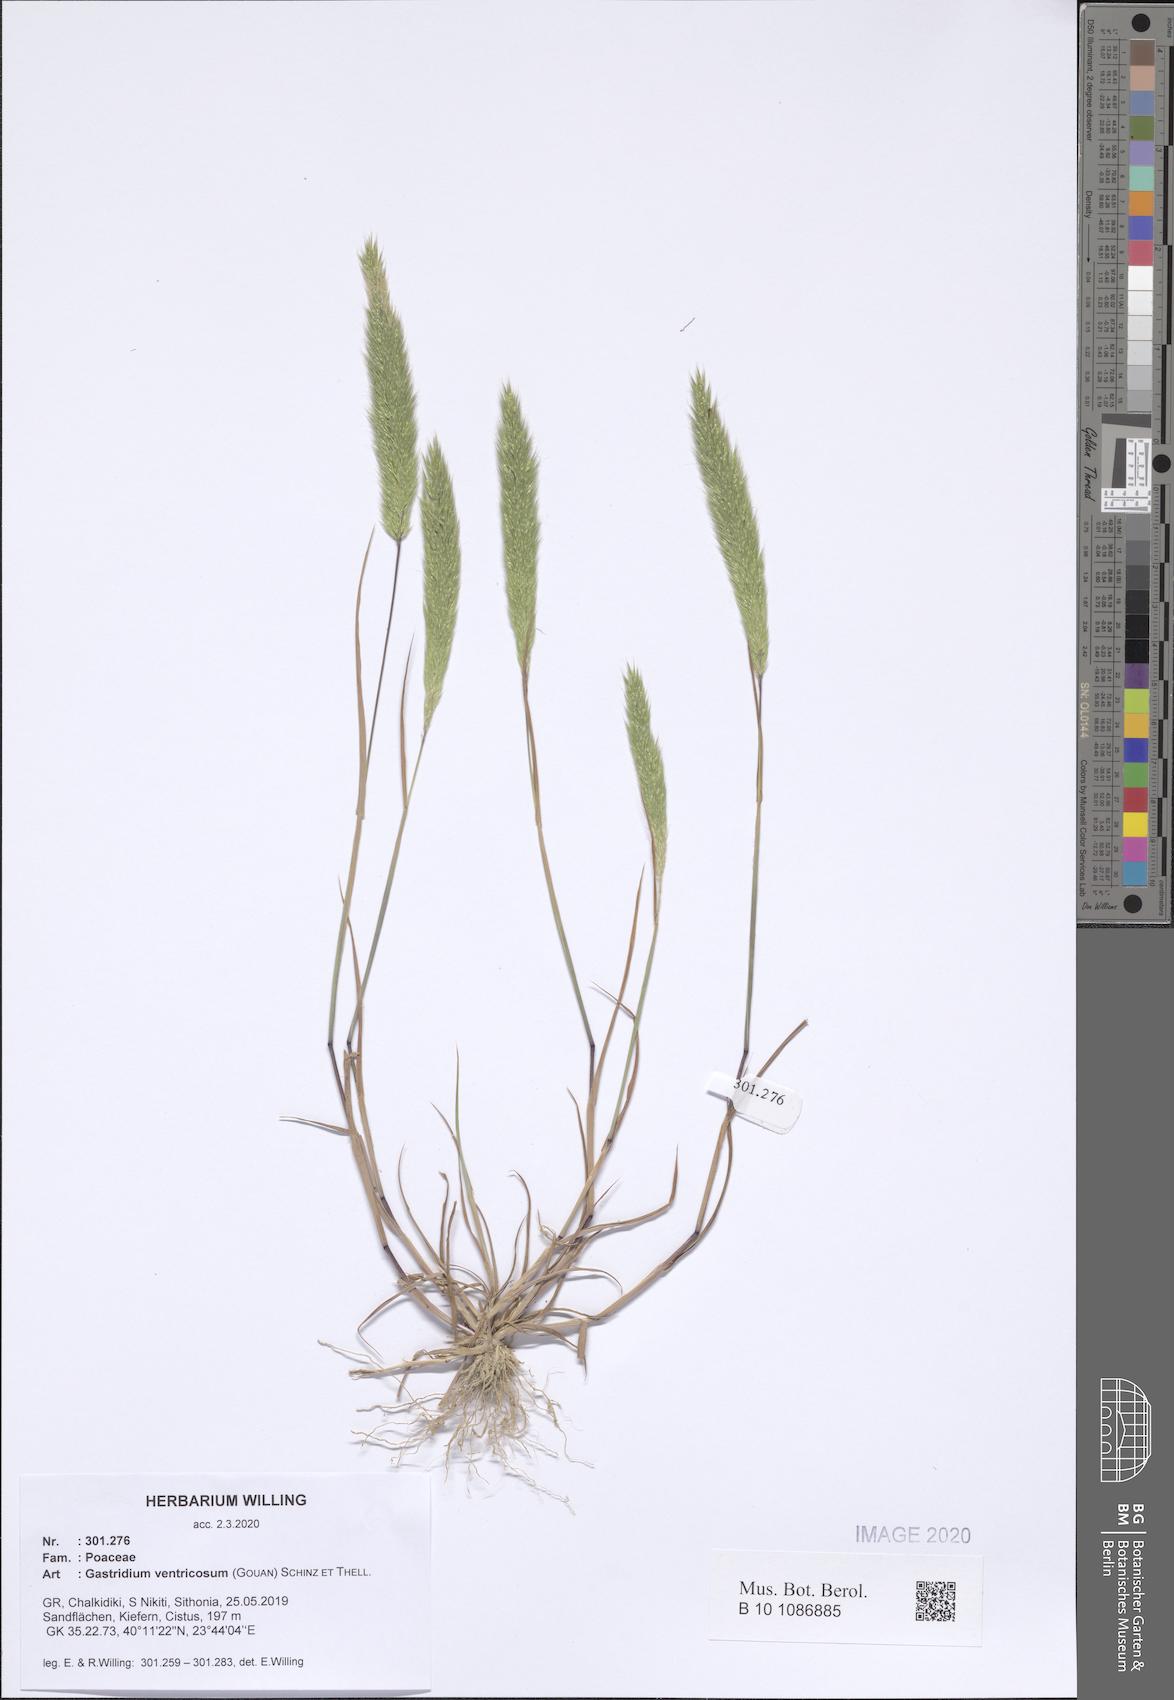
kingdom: Plantae
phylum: Tracheophyta
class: Liliopsida
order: Poales
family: Poaceae
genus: Gastridium
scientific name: Gastridium ventricosum
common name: Nit-grass
